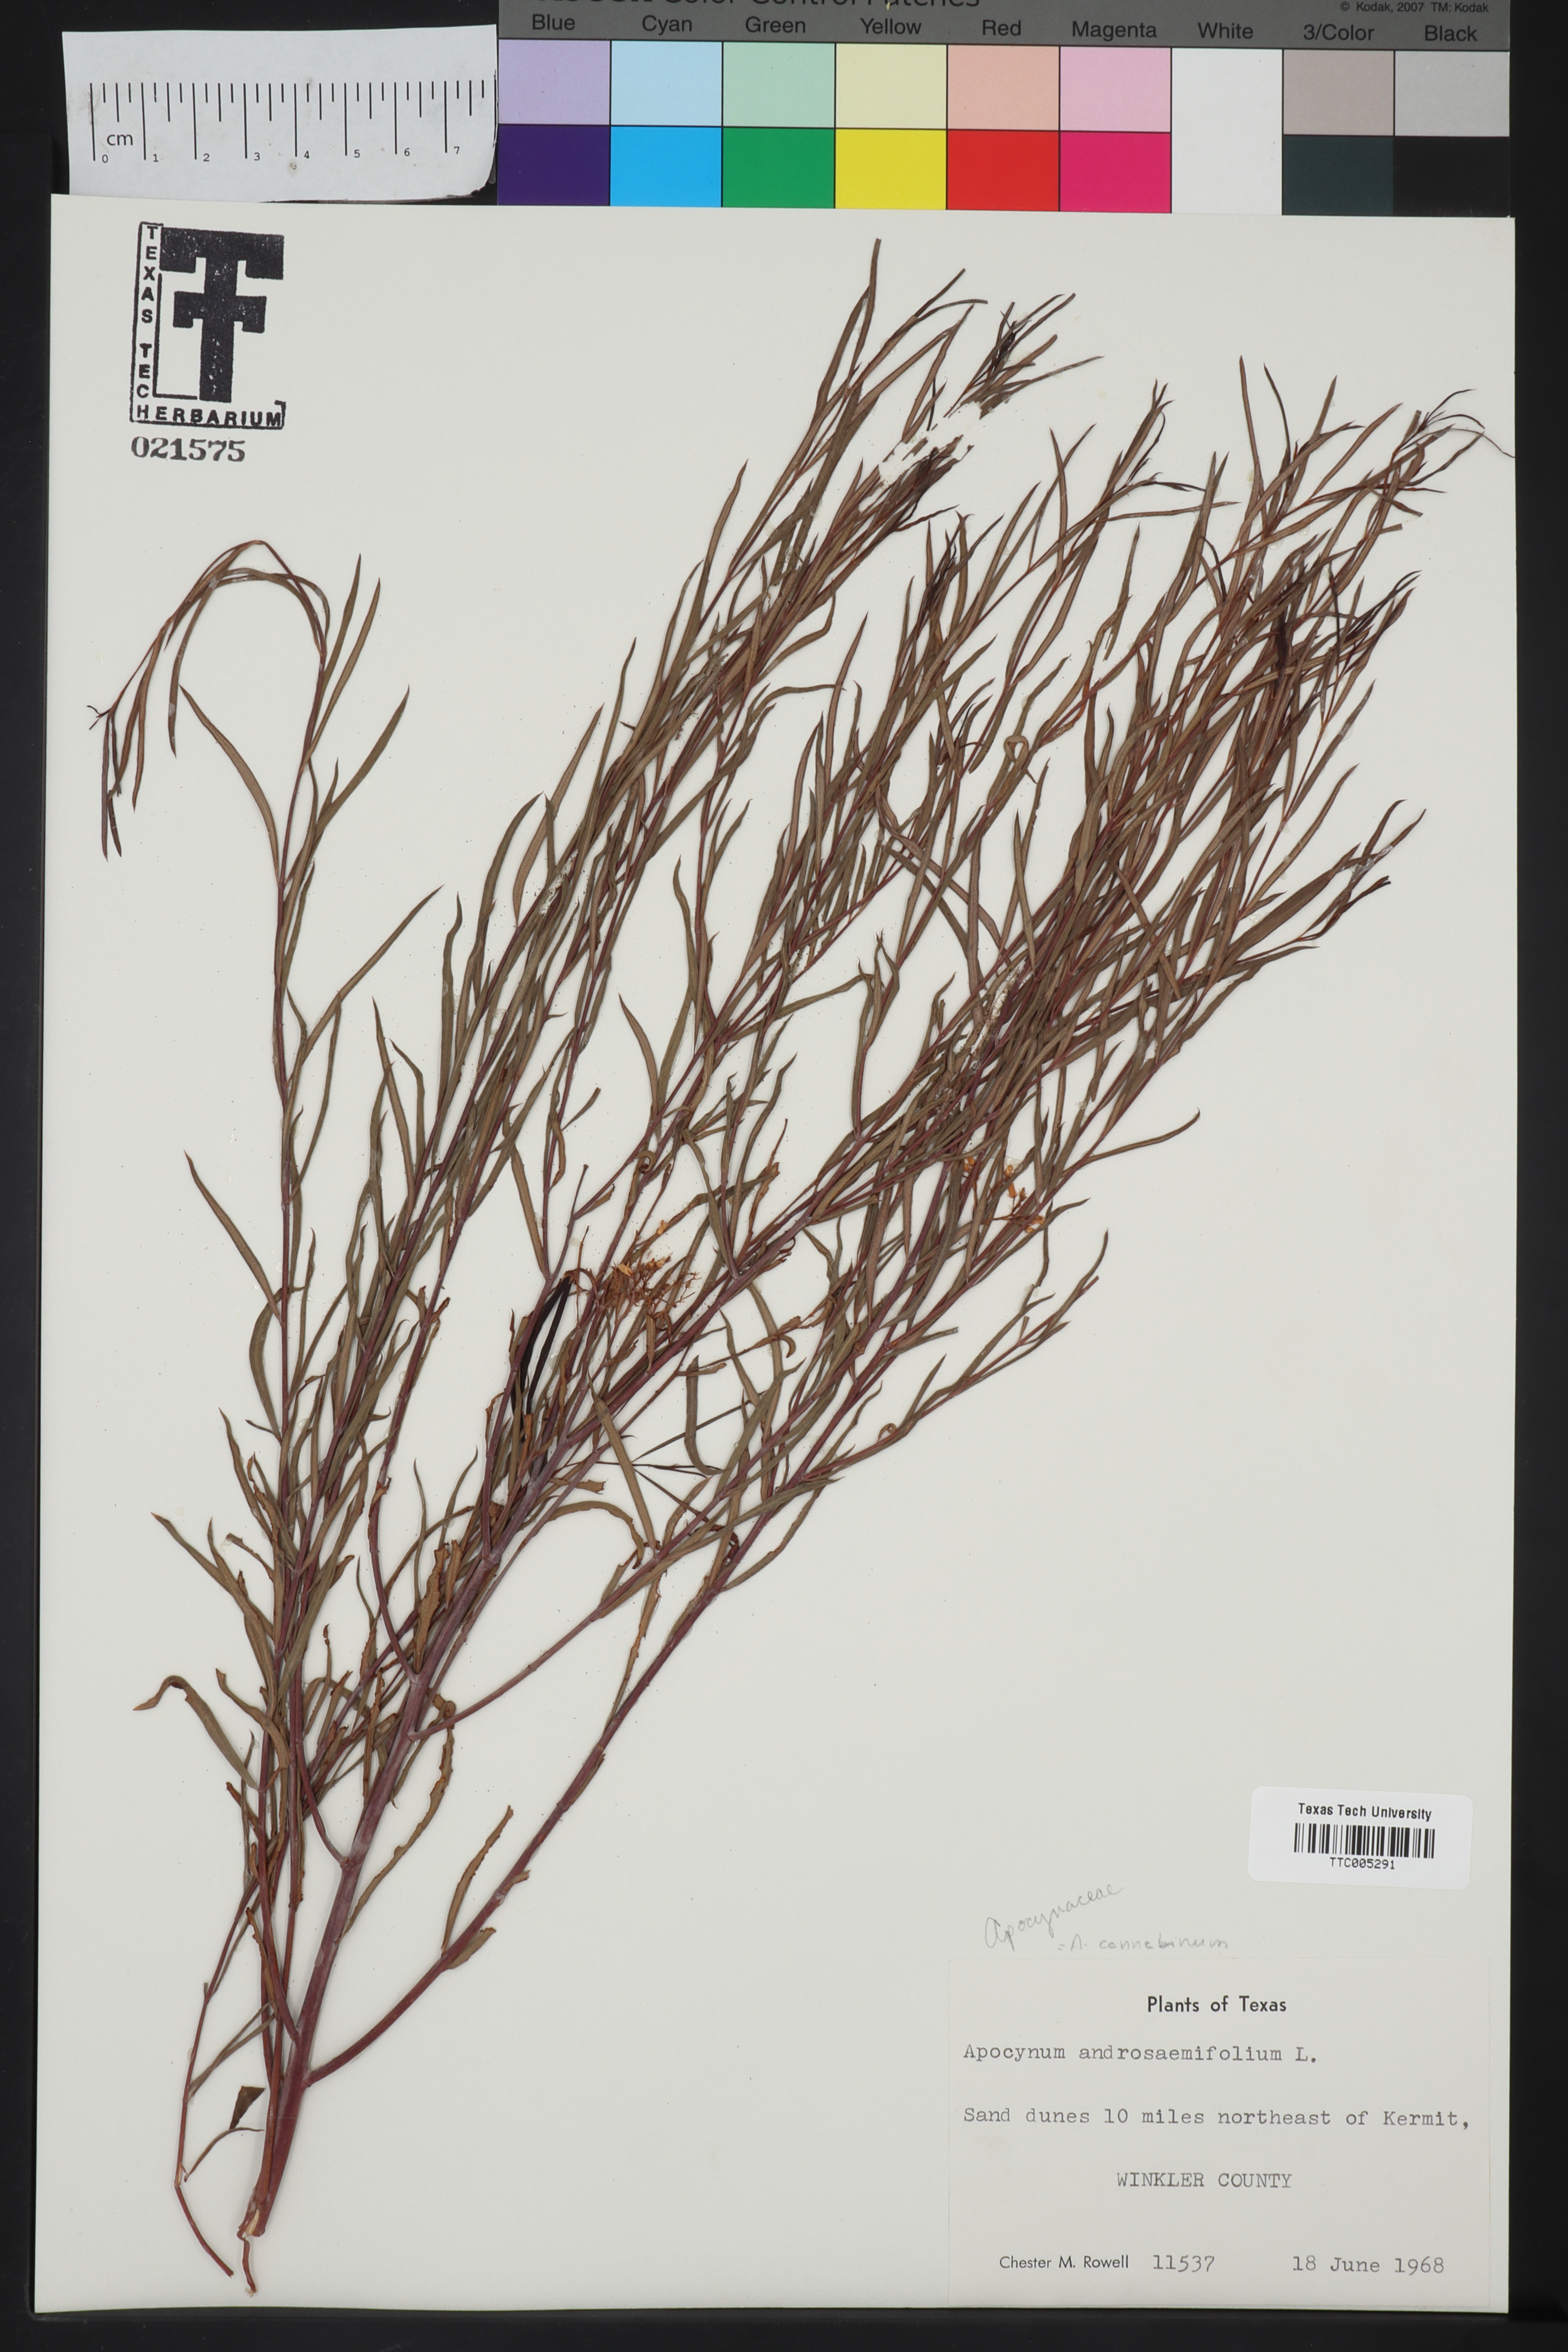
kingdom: Plantae
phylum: Tracheophyta
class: Magnoliopsida
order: Gentianales
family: Apocynaceae
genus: Apocynum
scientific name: Apocynum androsaemifolium
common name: Spreading dogbane
